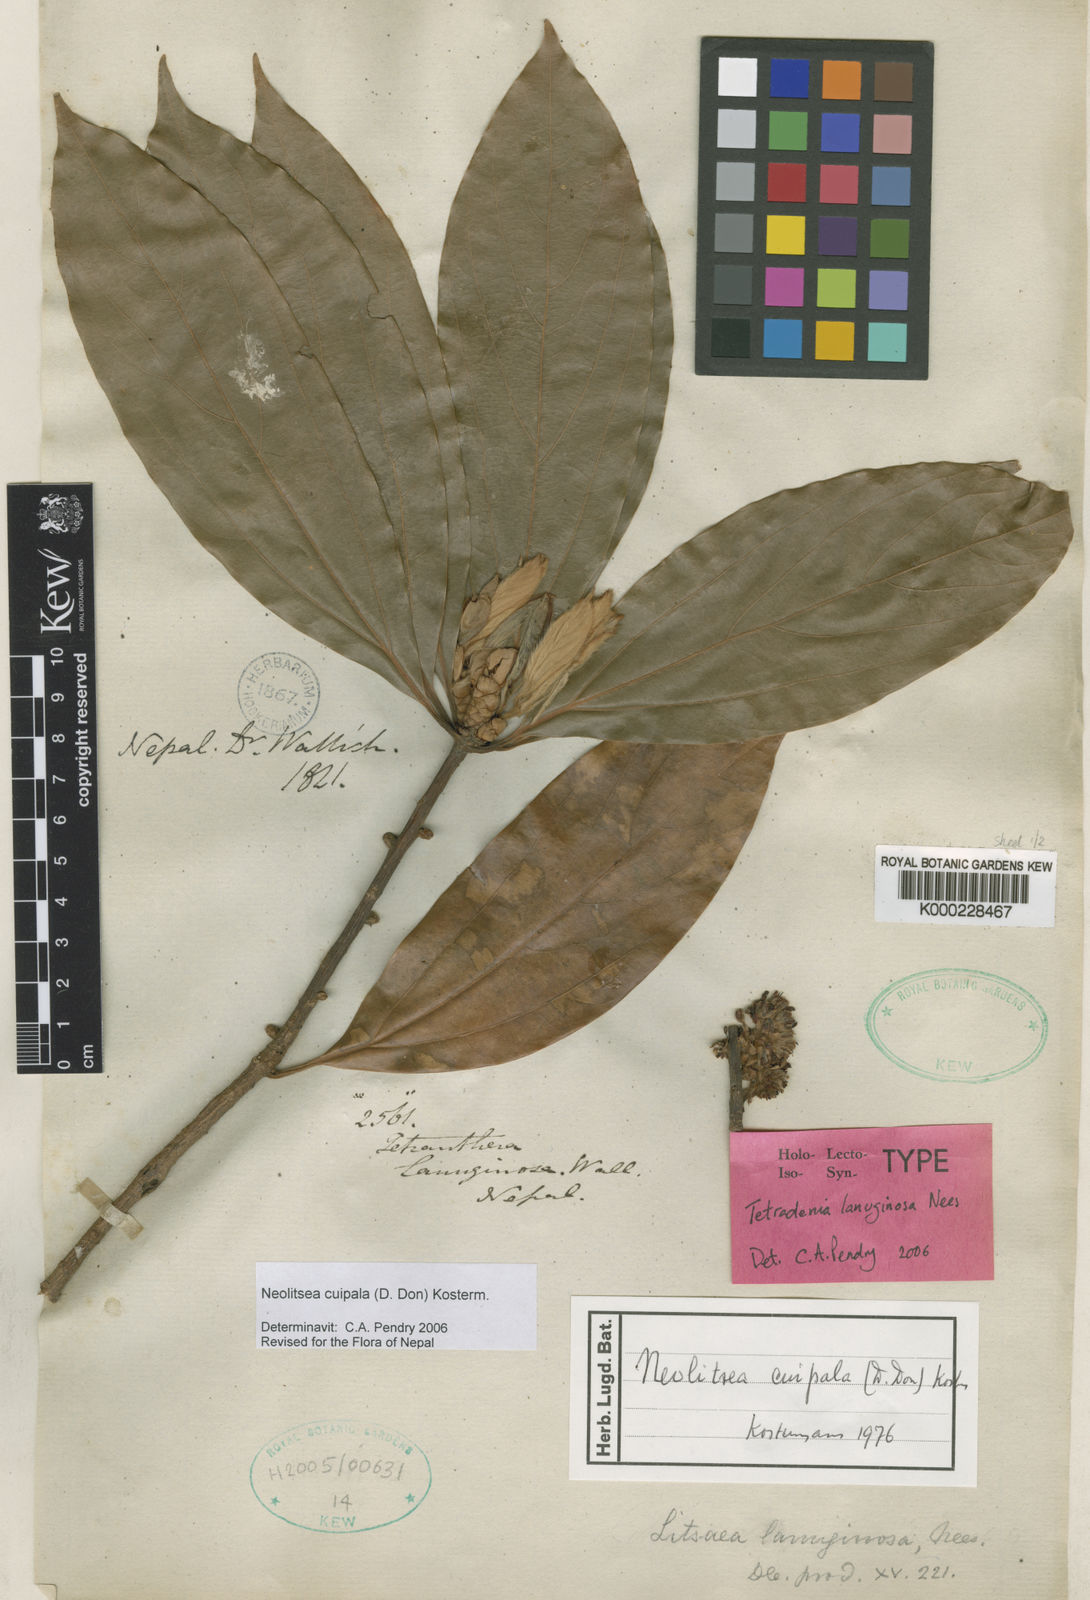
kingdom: Plantae
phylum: Tracheophyta
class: Magnoliopsida
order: Laurales
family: Lauraceae
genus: Neolitsea
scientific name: Neolitsea cuipala
